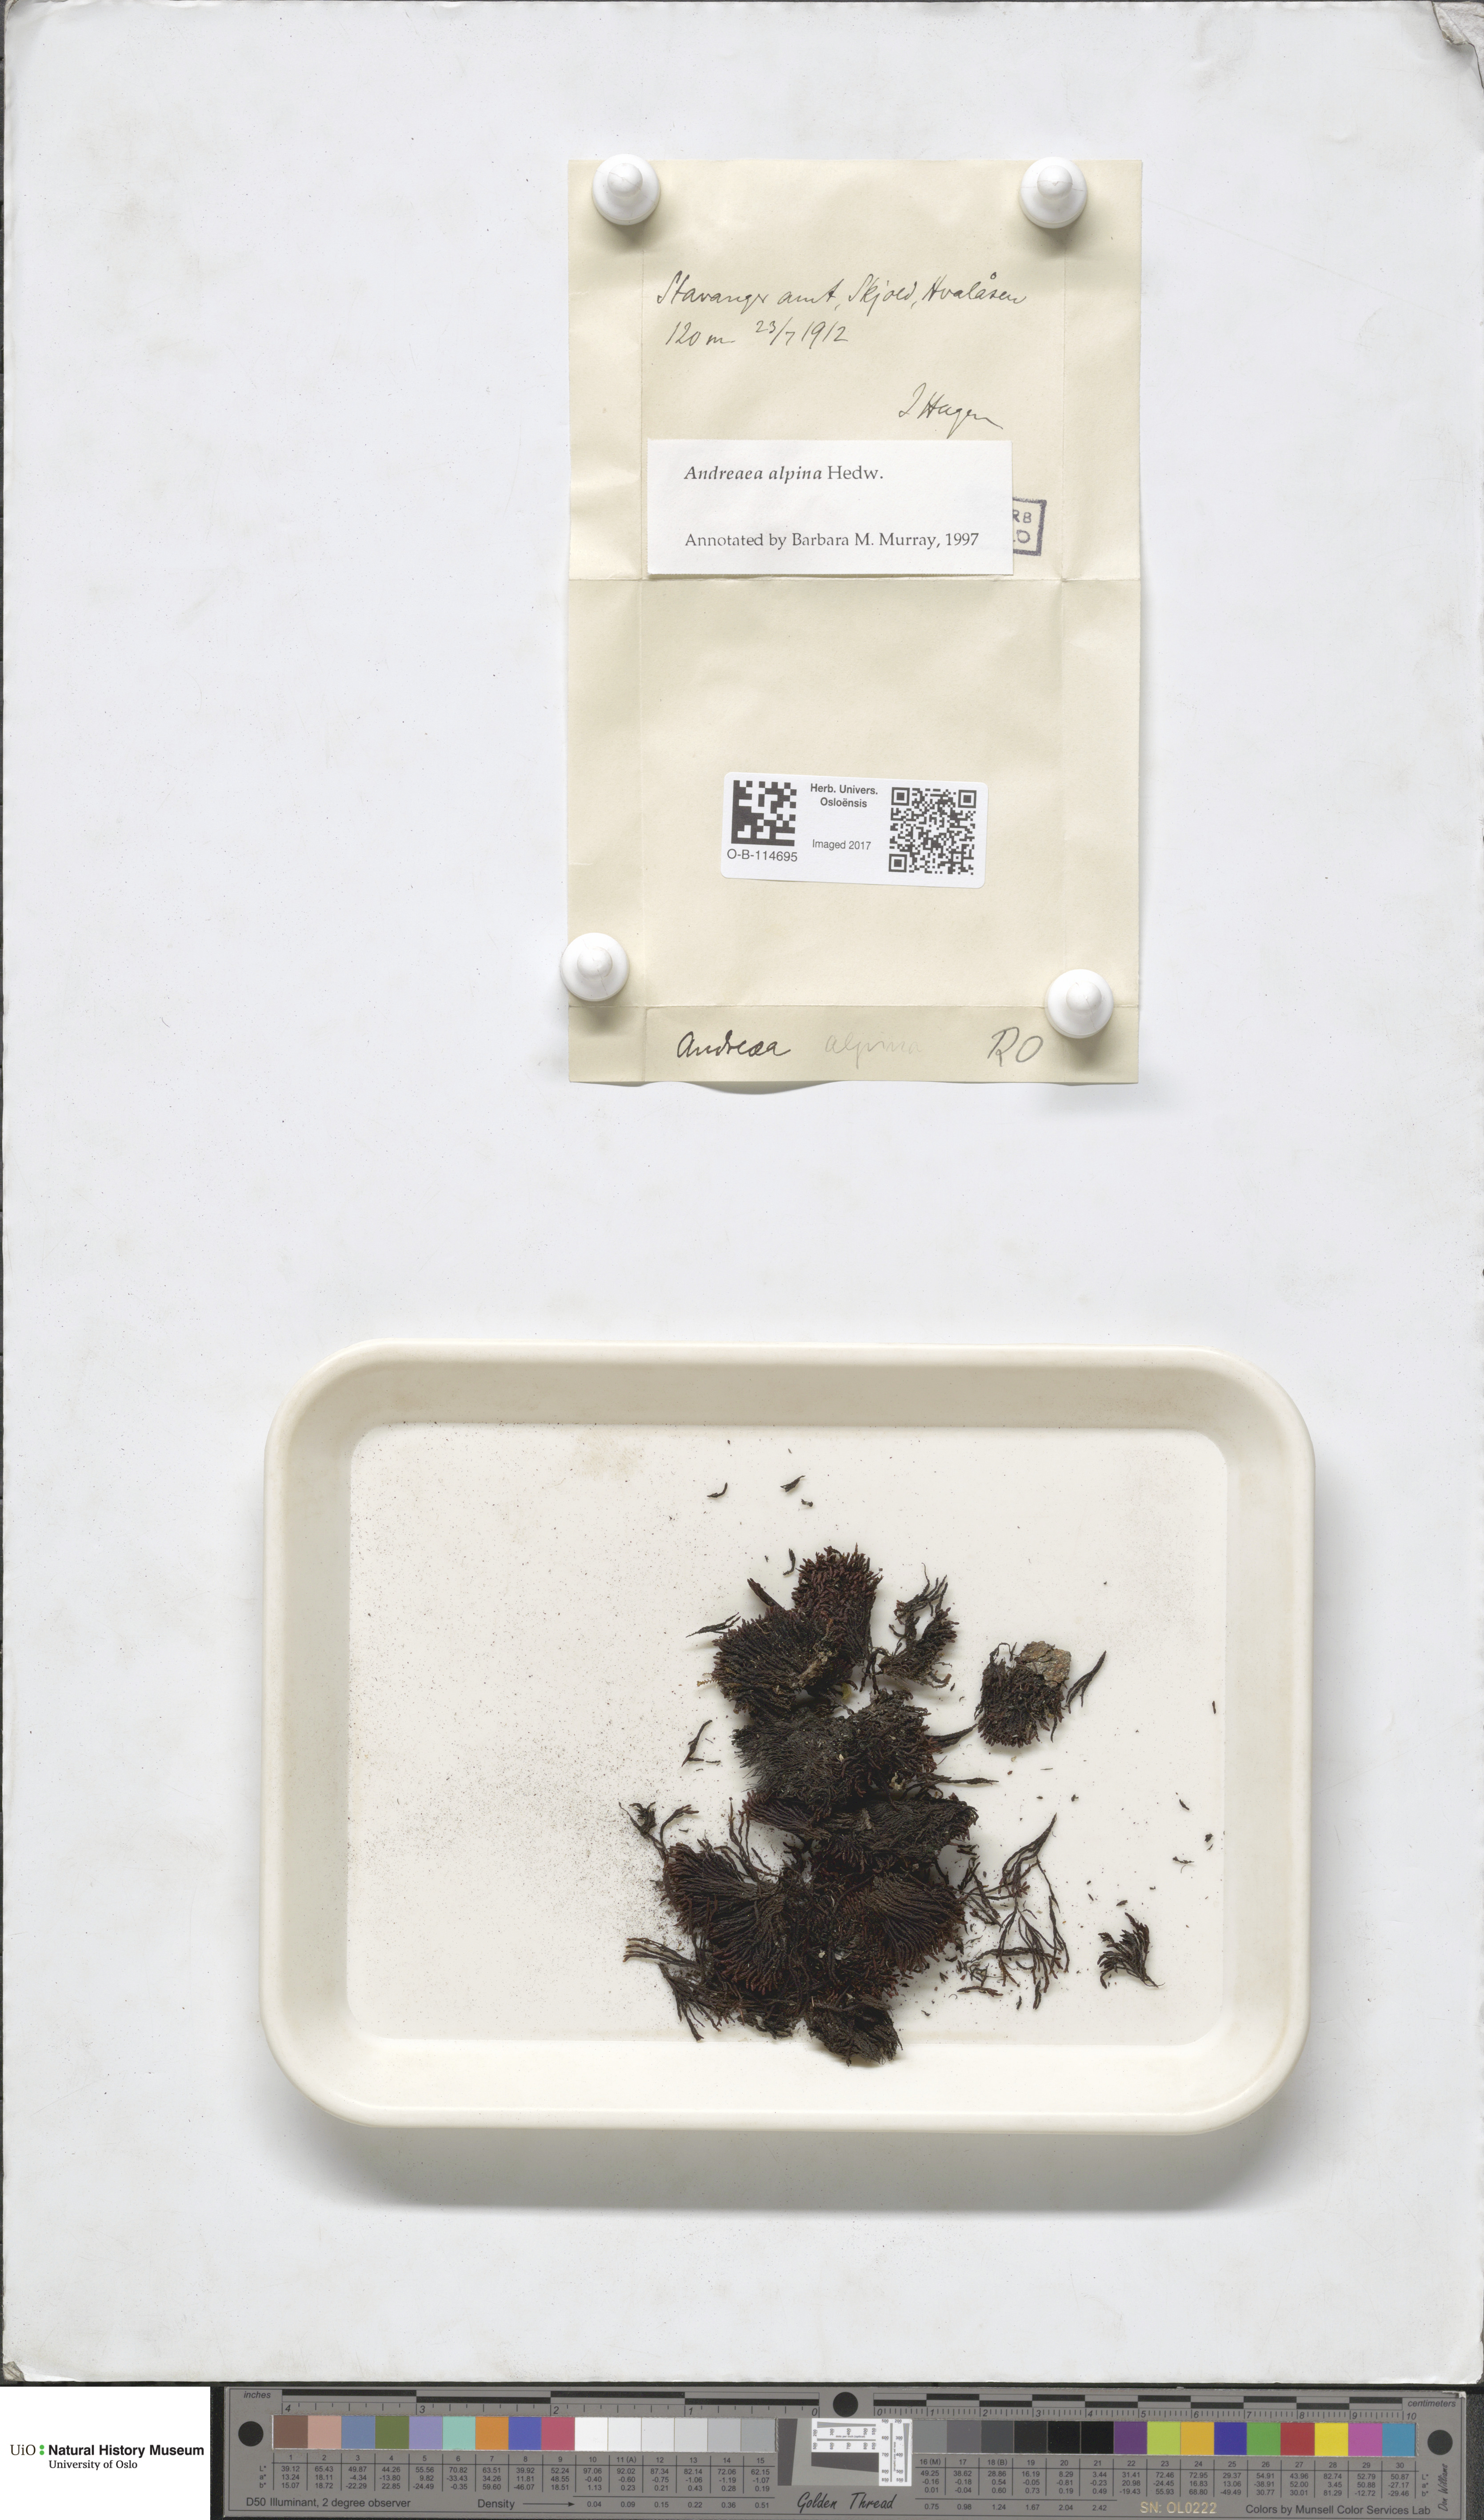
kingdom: Plantae
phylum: Bryophyta
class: Andreaeopsida
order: Andreaeales
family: Andreaeaceae
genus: Andreaea
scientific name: Andreaea hookeri
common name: Alpine rock-moss
